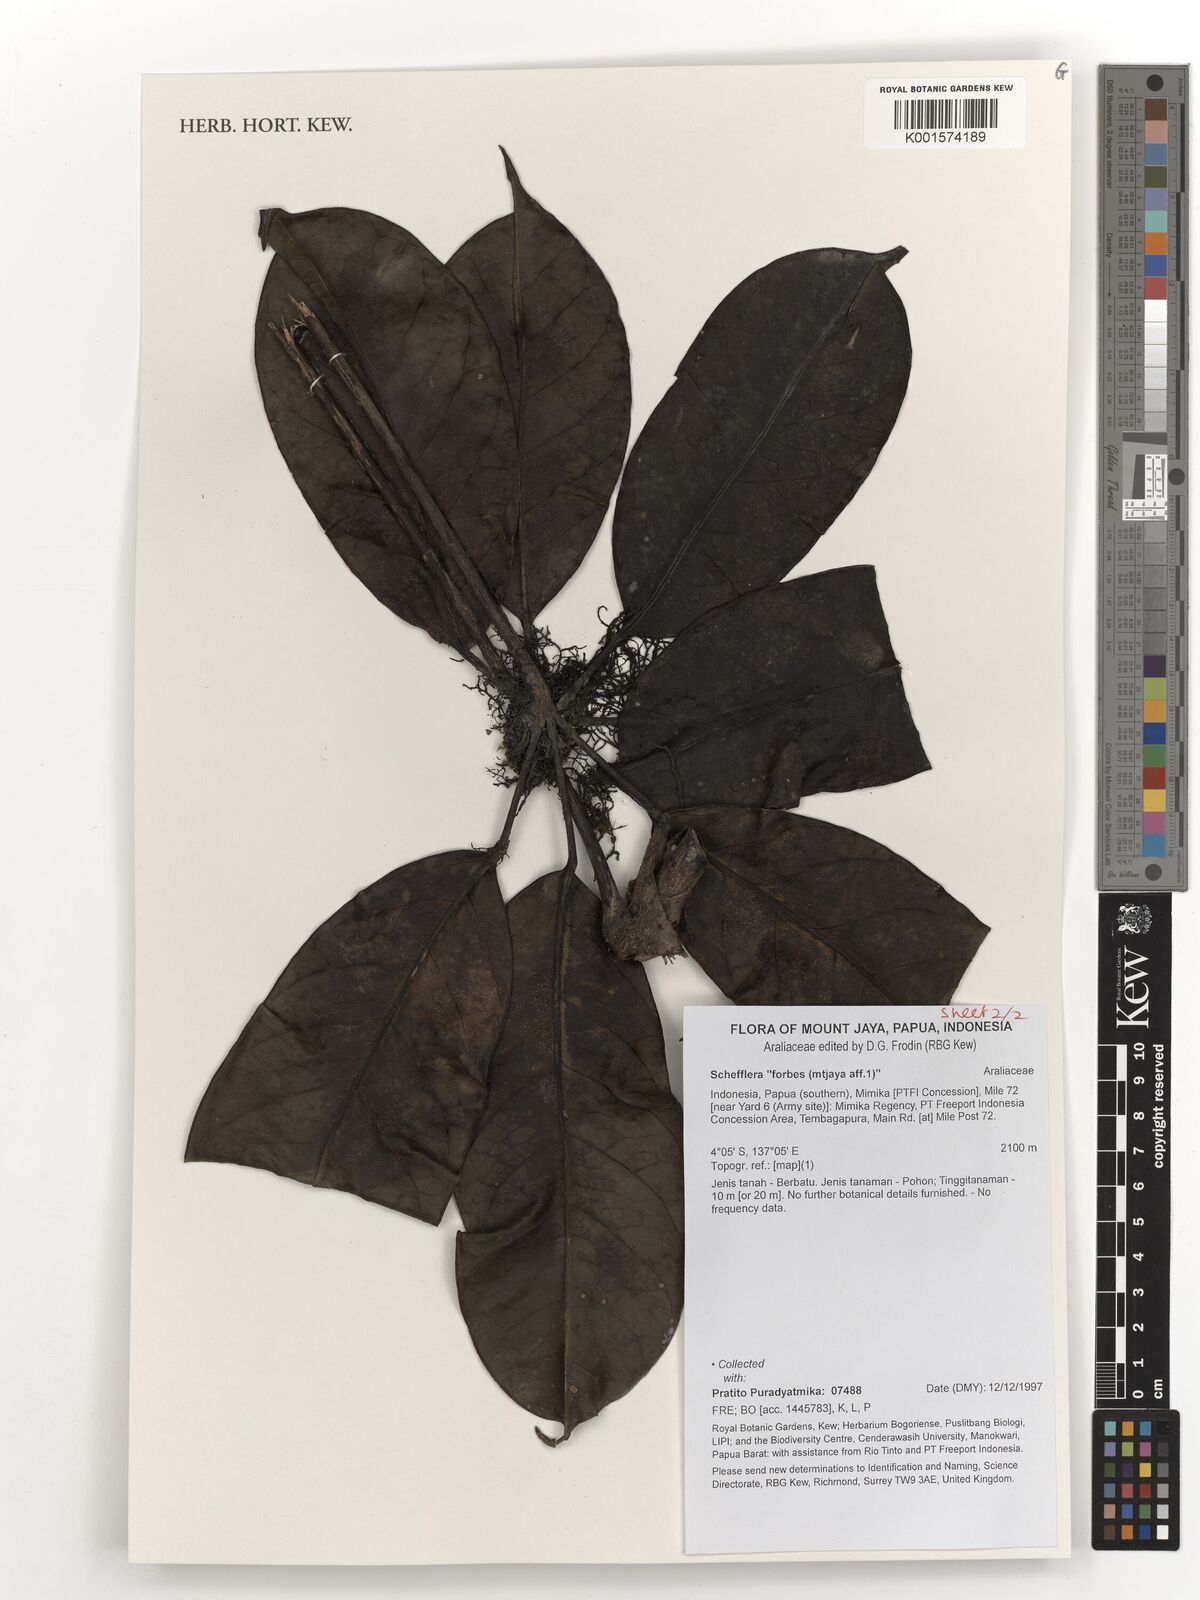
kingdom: Plantae
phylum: Tracheophyta
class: Magnoliopsida
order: Apiales
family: Araliaceae
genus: Schefflera
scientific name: Schefflera
